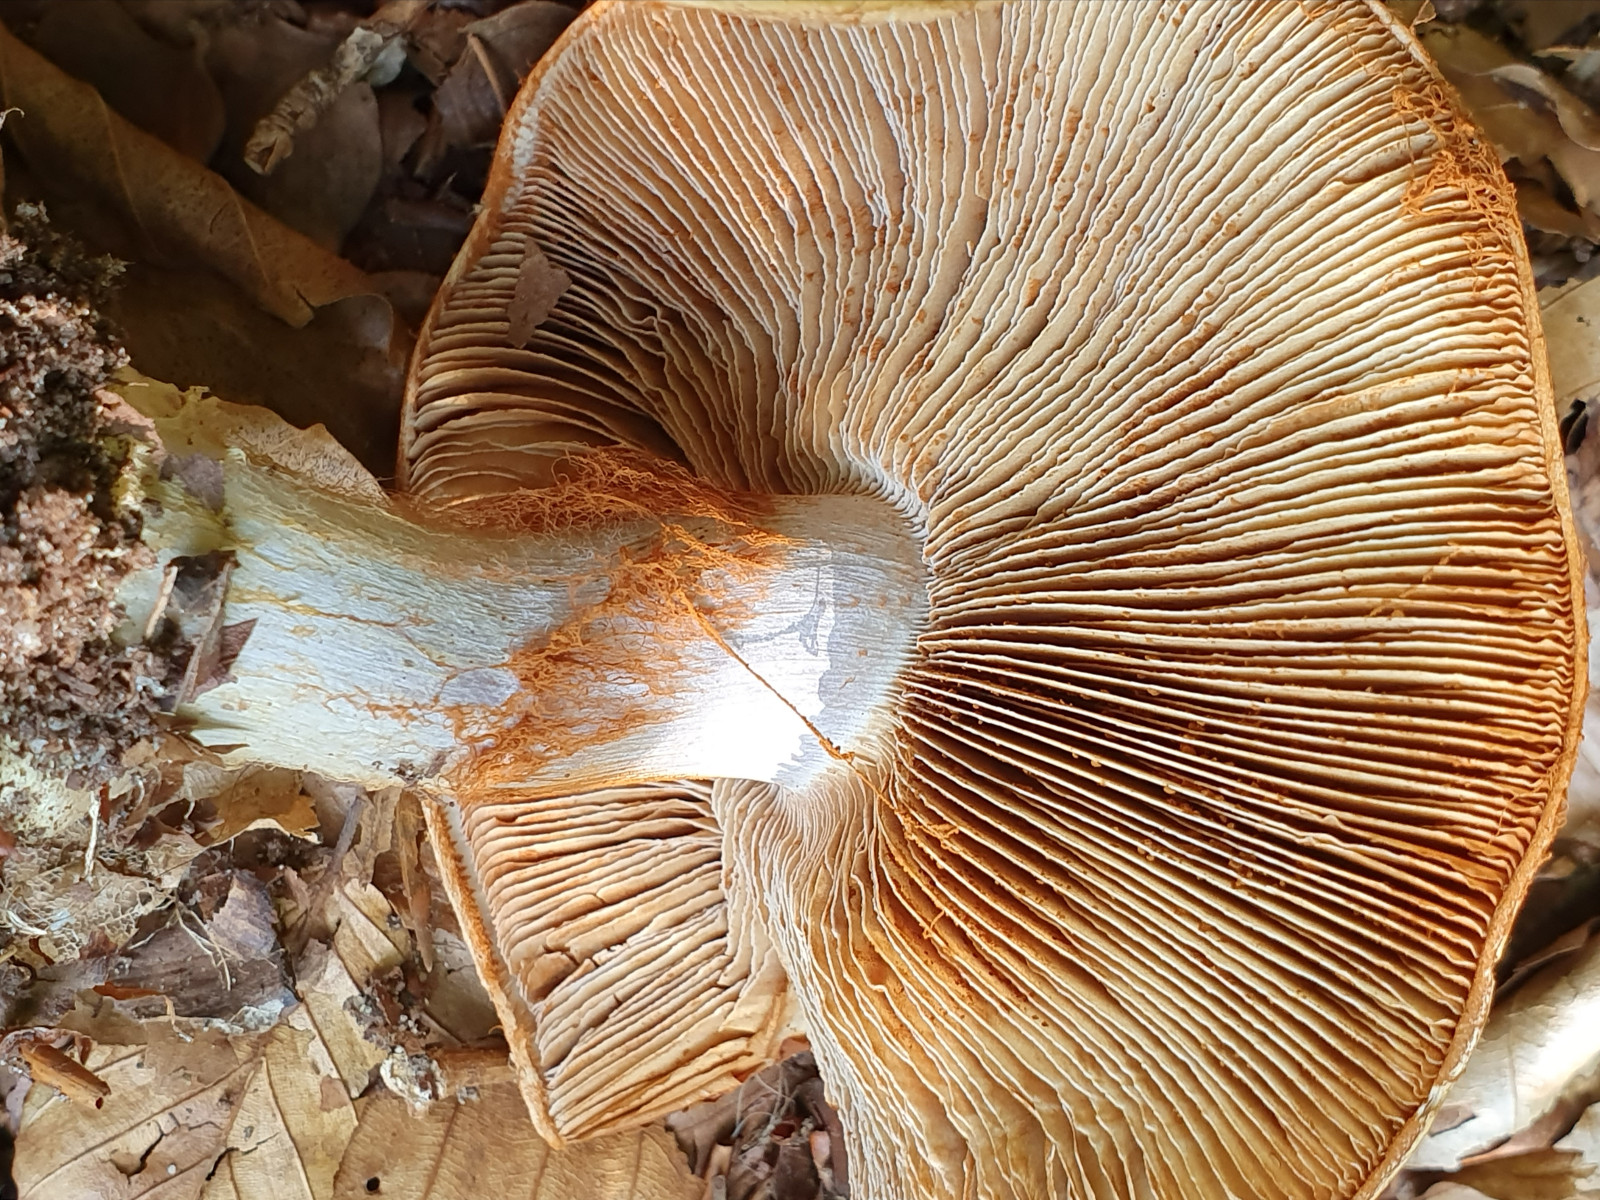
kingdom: Fungi
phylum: Basidiomycota
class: Agaricomycetes
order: Agaricales
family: Cortinariaceae
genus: Cortinarius
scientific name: Cortinarius anserinus
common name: bøge-slørhat
